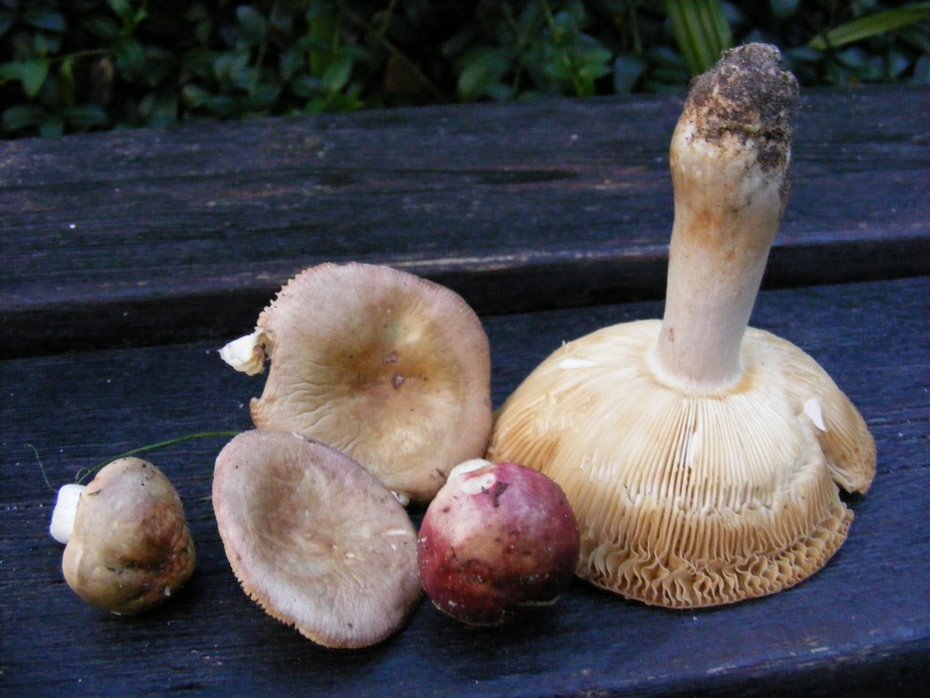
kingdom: Fungi
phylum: Basidiomycota
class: Agaricomycetes
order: Russulales
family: Russulaceae
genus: Russula
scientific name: Russula versicolor
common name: foranderlig skørhat
